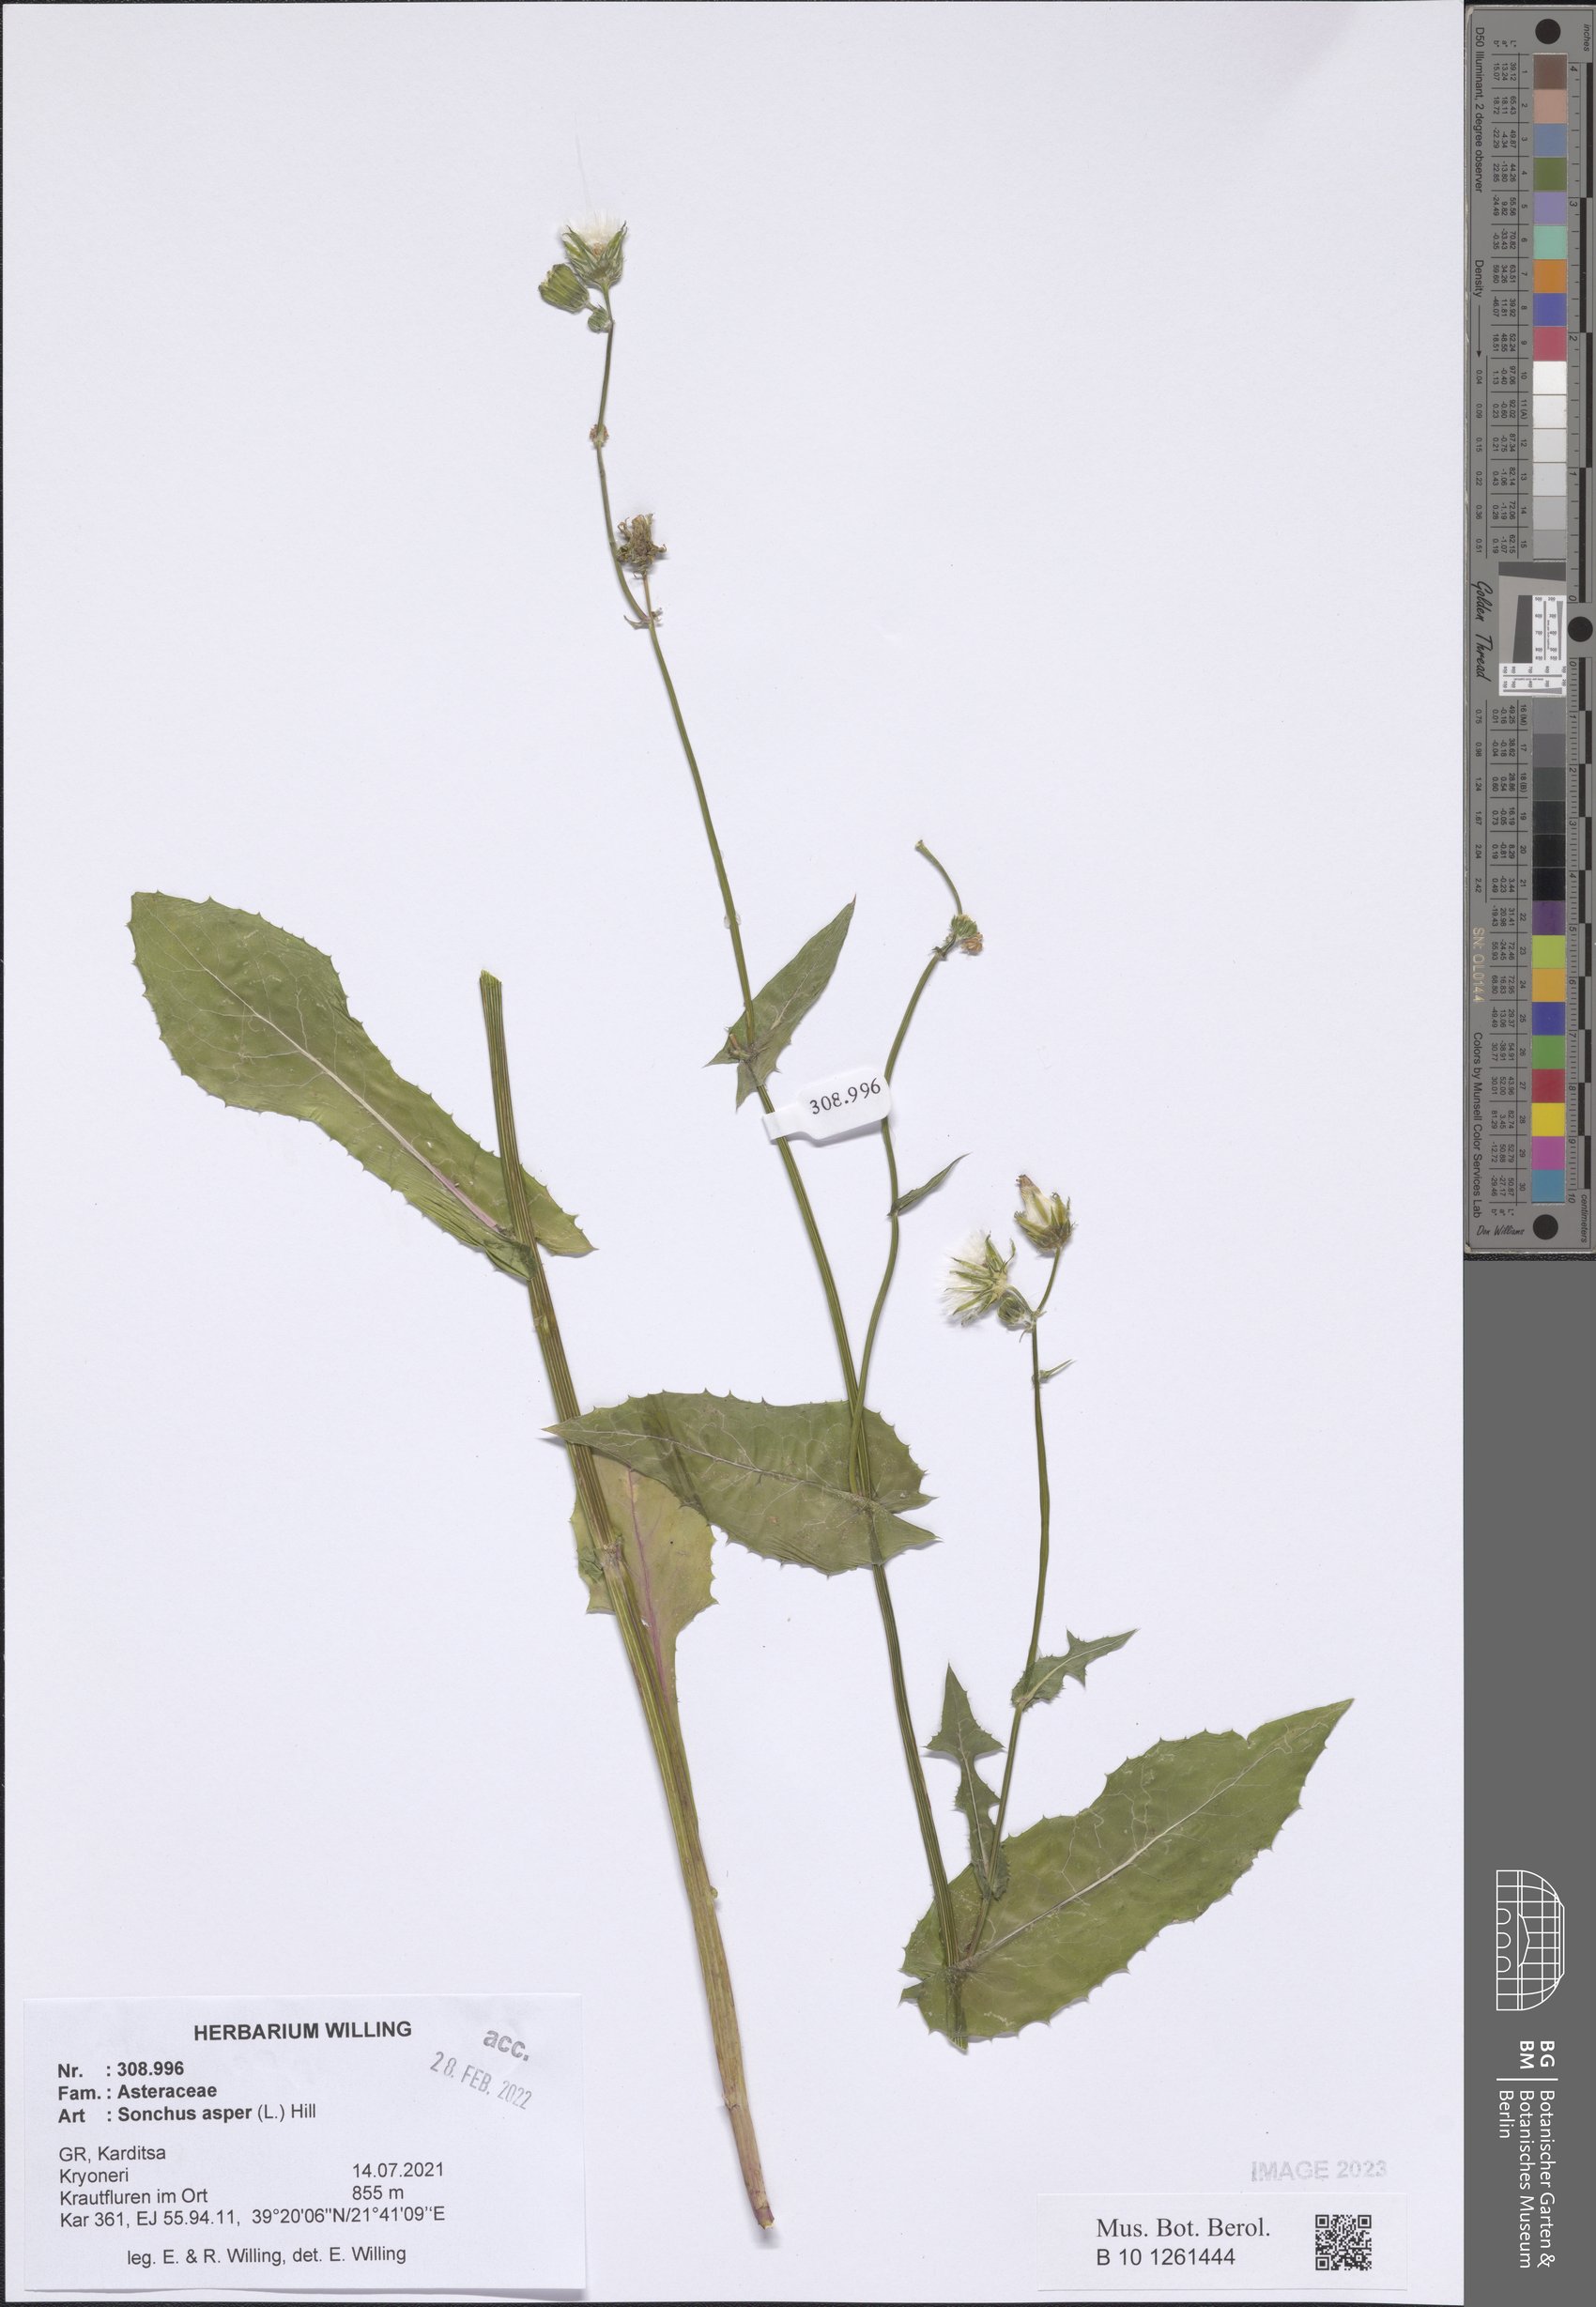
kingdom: Plantae
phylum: Tracheophyta
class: Magnoliopsida
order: Asterales
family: Asteraceae
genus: Sonchus
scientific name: Sonchus asper
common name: Prickly sow-thistle
